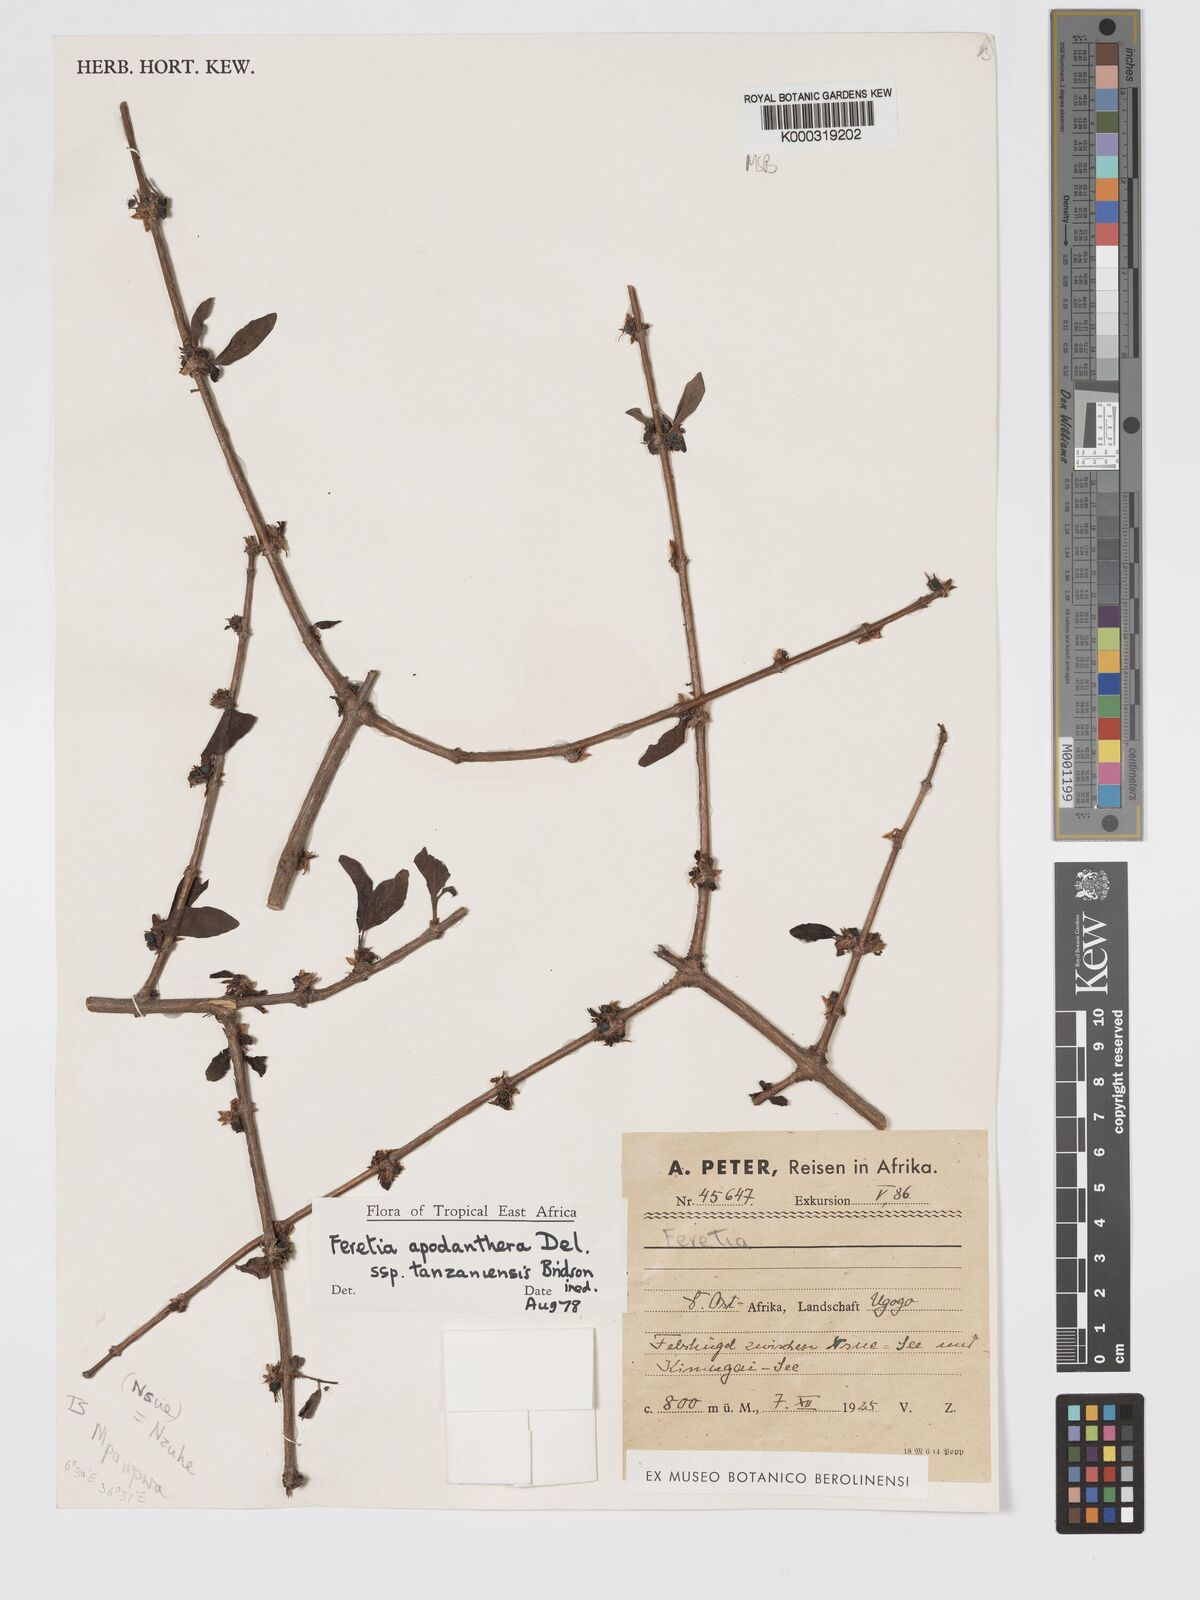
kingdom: Plantae
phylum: Tracheophyta
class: Magnoliopsida
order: Gentianales
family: Rubiaceae
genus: Feretia
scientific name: Feretia apodanthera
